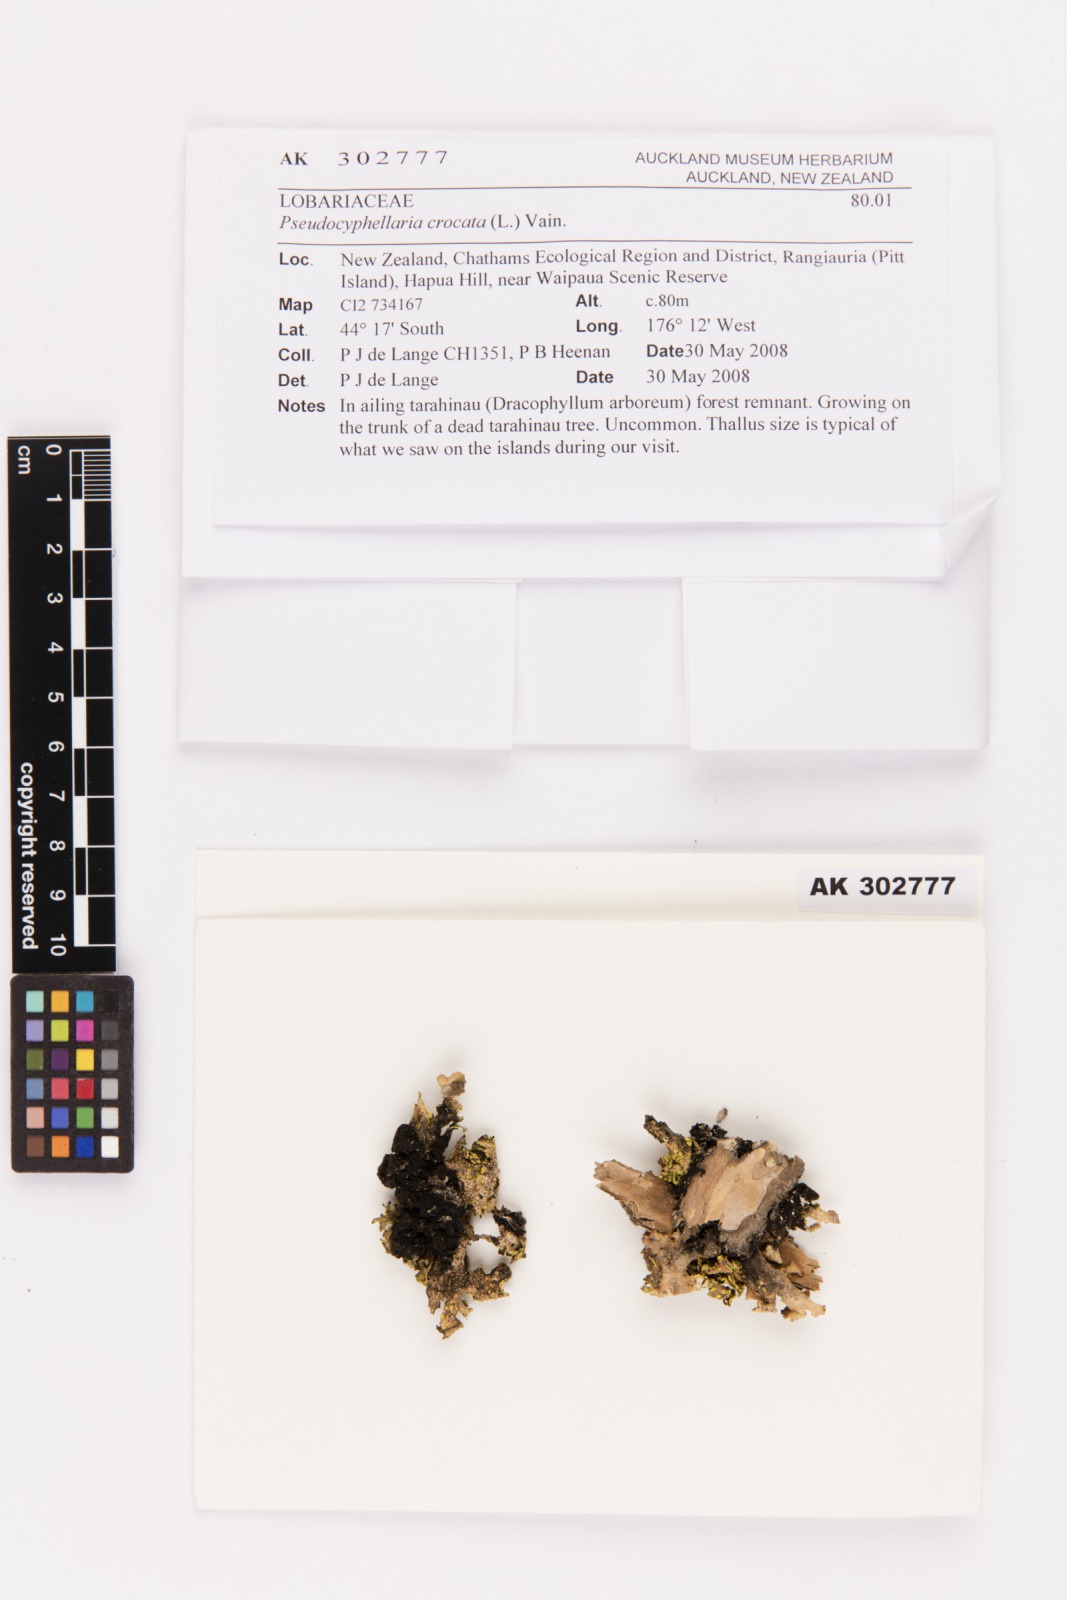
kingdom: Fungi
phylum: Ascomycota
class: Lecanoromycetes
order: Peltigerales
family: Lobariaceae
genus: Pseudocyphellaria
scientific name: Pseudocyphellaria crocata
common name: Golden specklebelly
